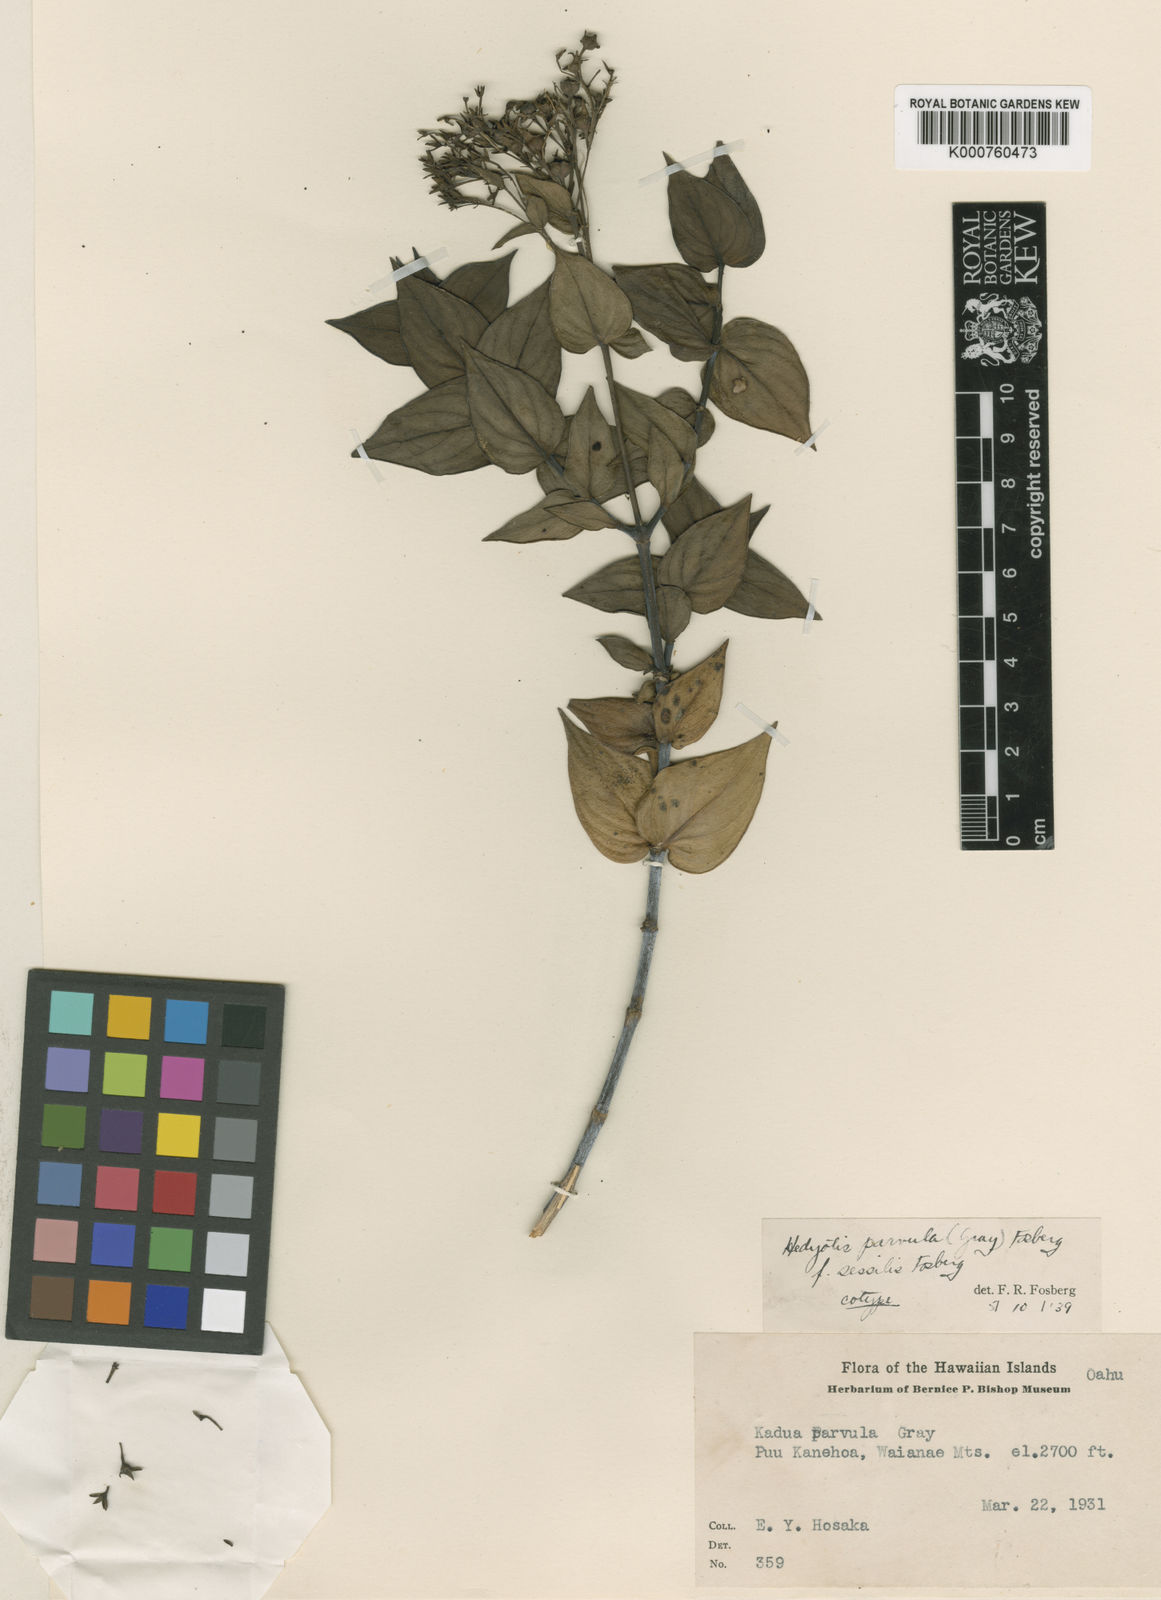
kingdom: Plantae
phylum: Tracheophyta
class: Magnoliopsida
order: Gentianales
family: Rubiaceae
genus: Kadua
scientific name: Kadua parvula
